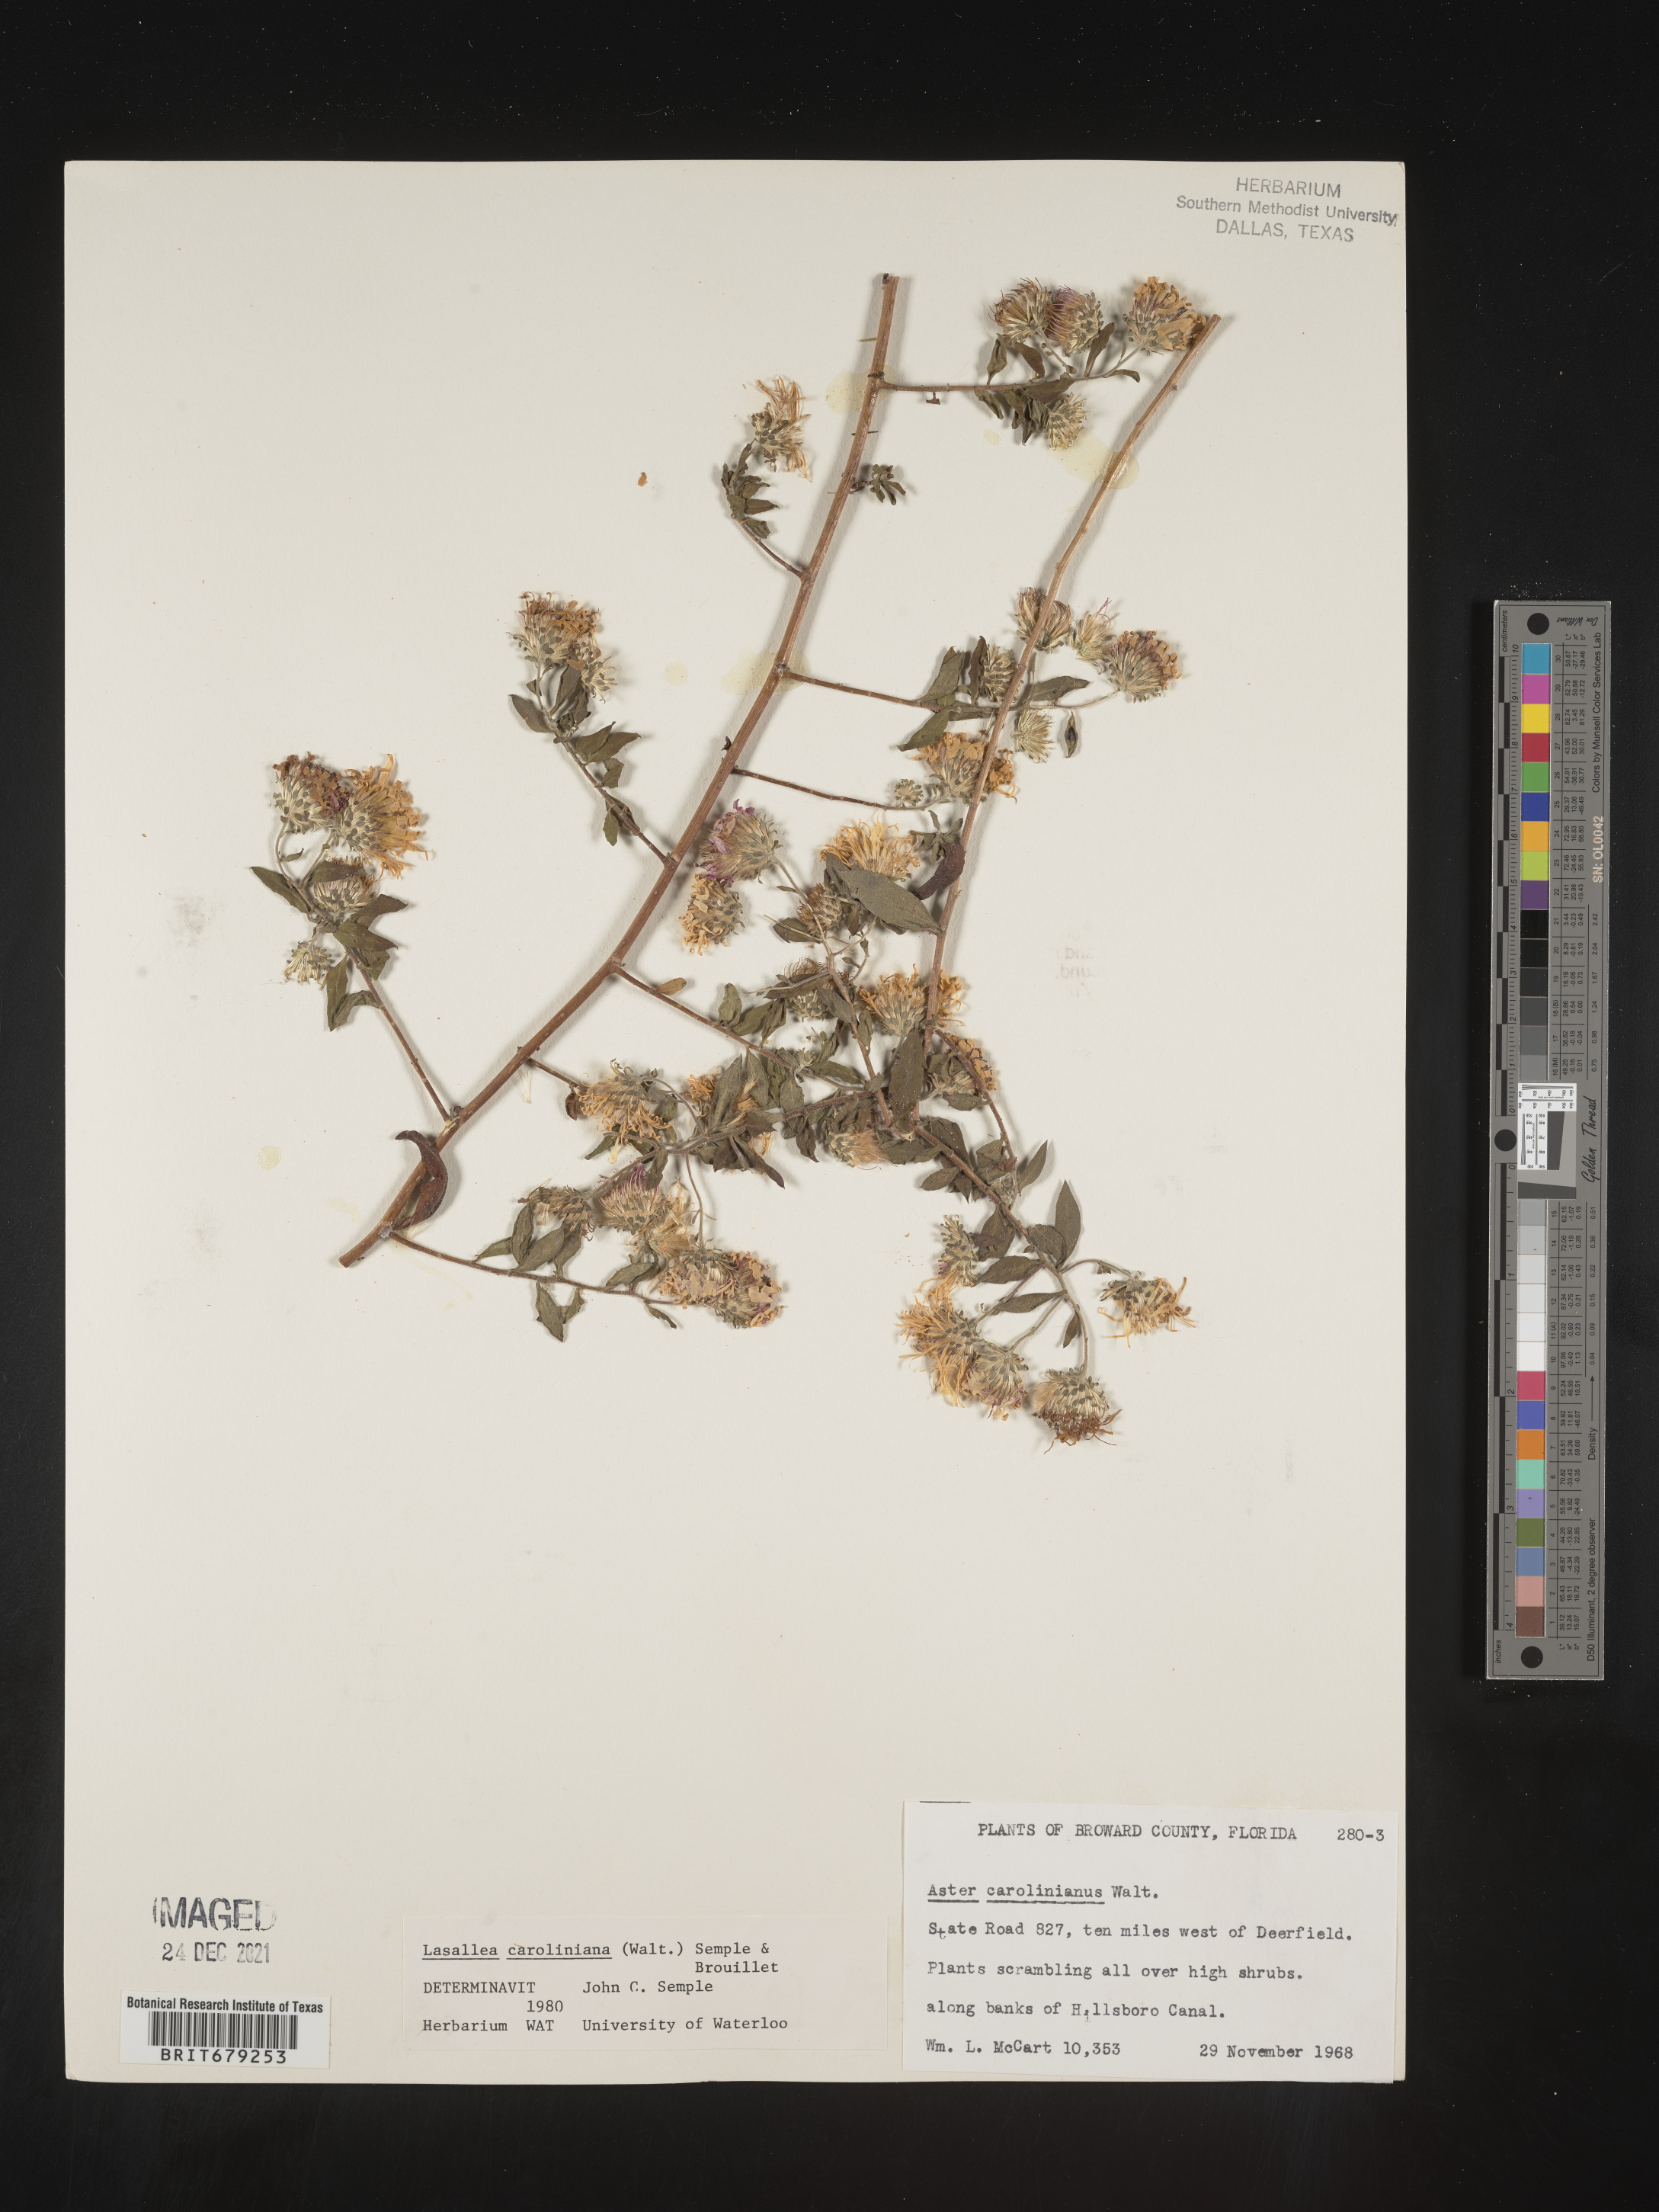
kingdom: Plantae
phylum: Tracheophyta
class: Magnoliopsida
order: Asterales
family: Asteraceae
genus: Ampelaster
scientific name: Ampelaster
